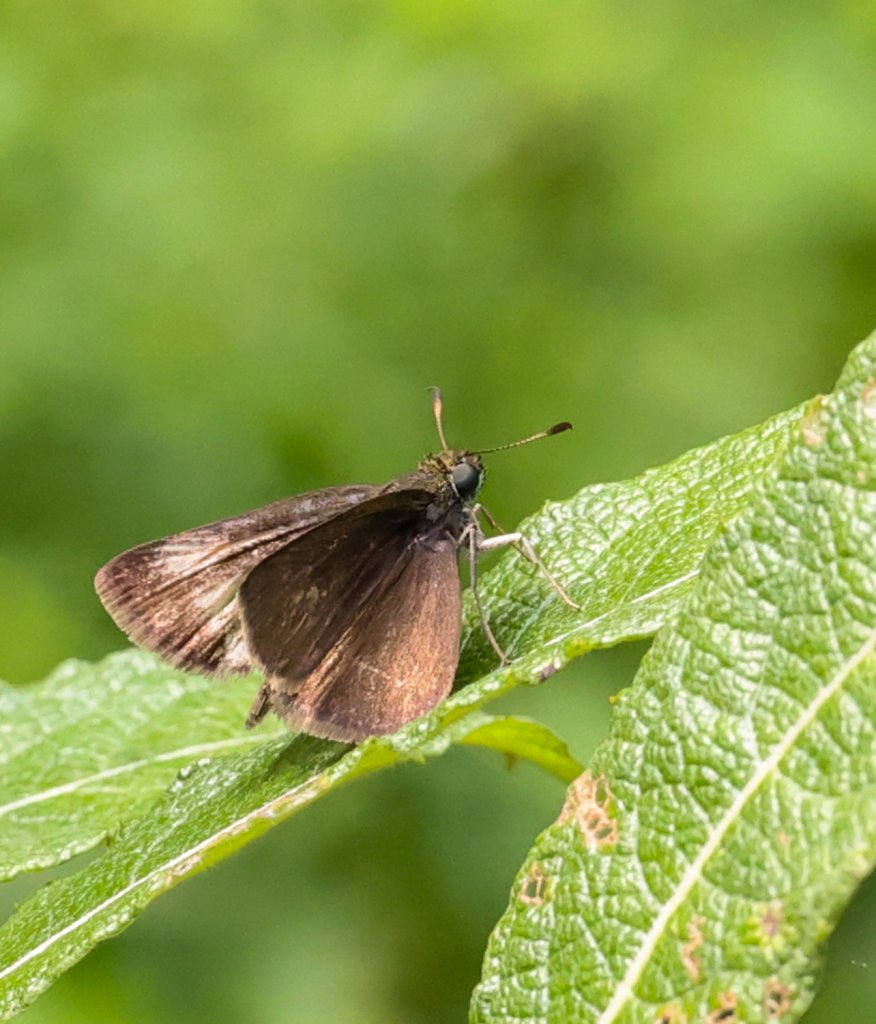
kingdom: Animalia
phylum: Arthropoda
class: Insecta
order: Lepidoptera
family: Hesperiidae
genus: Euphyes
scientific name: Euphyes vestris
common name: Dun Skipper
